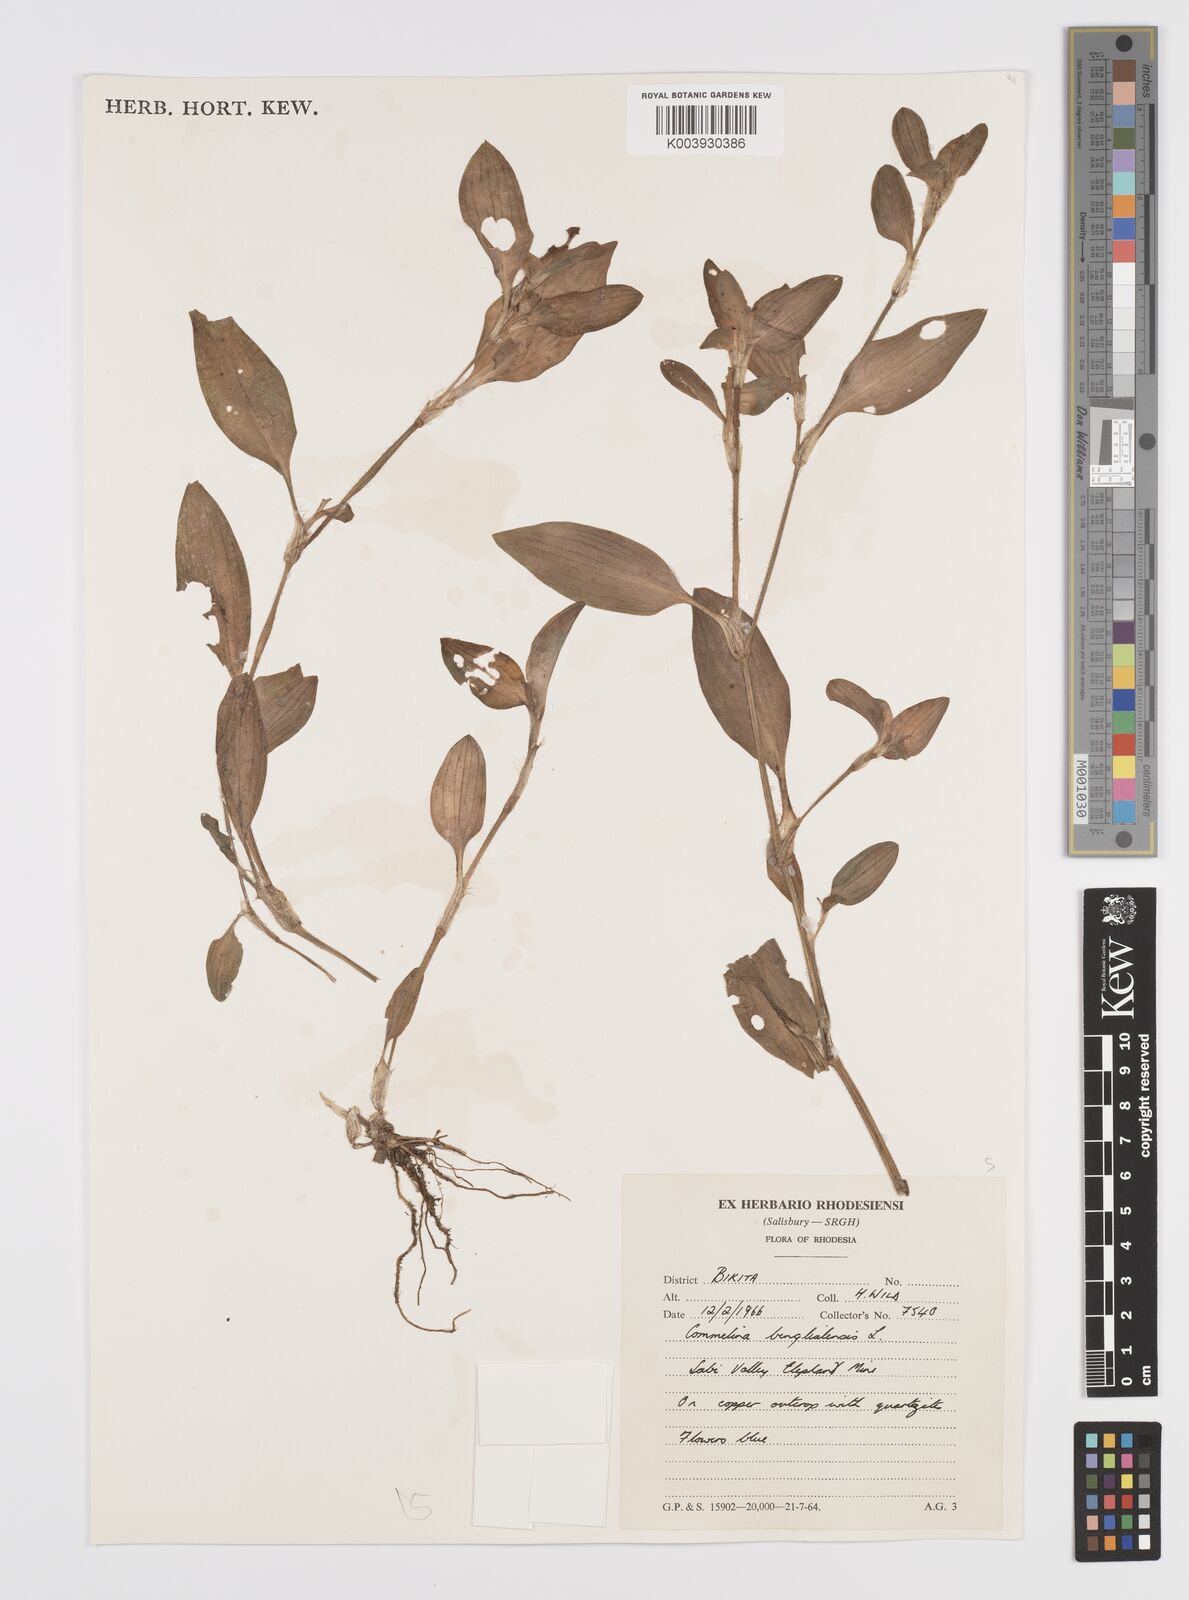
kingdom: Plantae
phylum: Tracheophyta
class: Liliopsida
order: Commelinales
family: Commelinaceae
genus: Commelina
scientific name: Commelina benghalensis
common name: Jio
